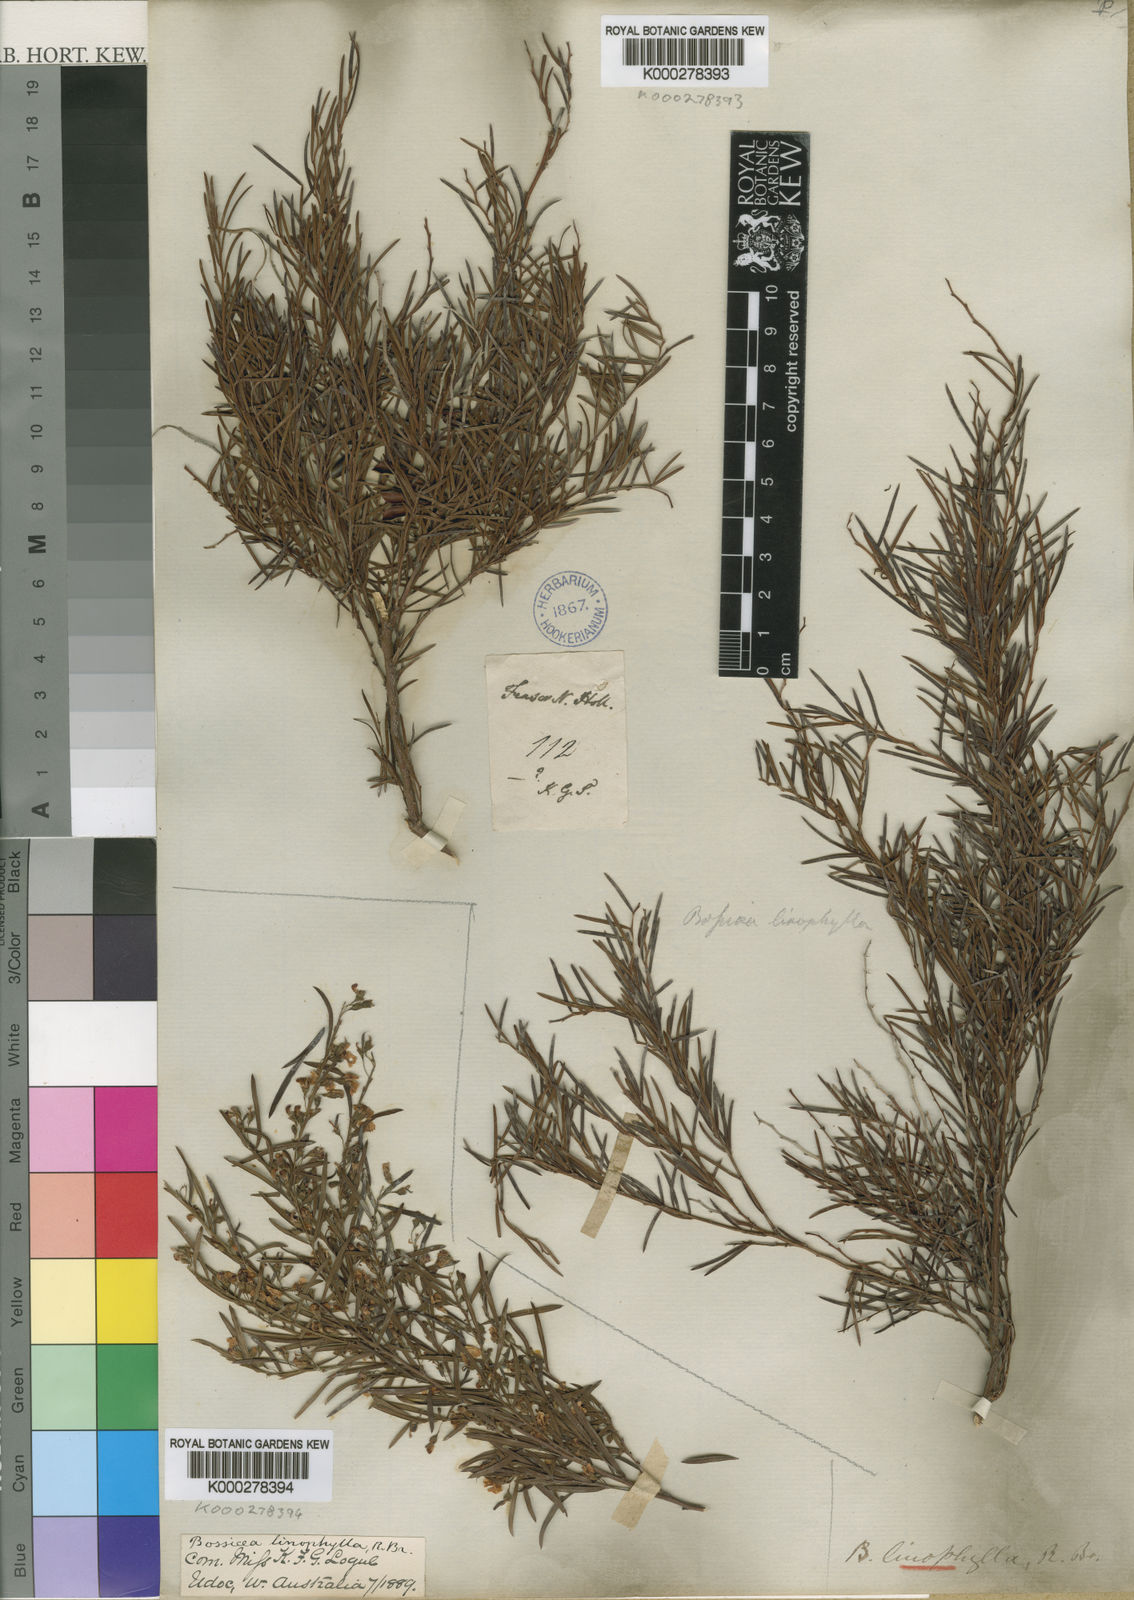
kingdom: Plantae
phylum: Tracheophyta
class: Magnoliopsida
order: Fabales
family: Fabaceae
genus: Bossiaea
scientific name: Bossiaea linophylla
